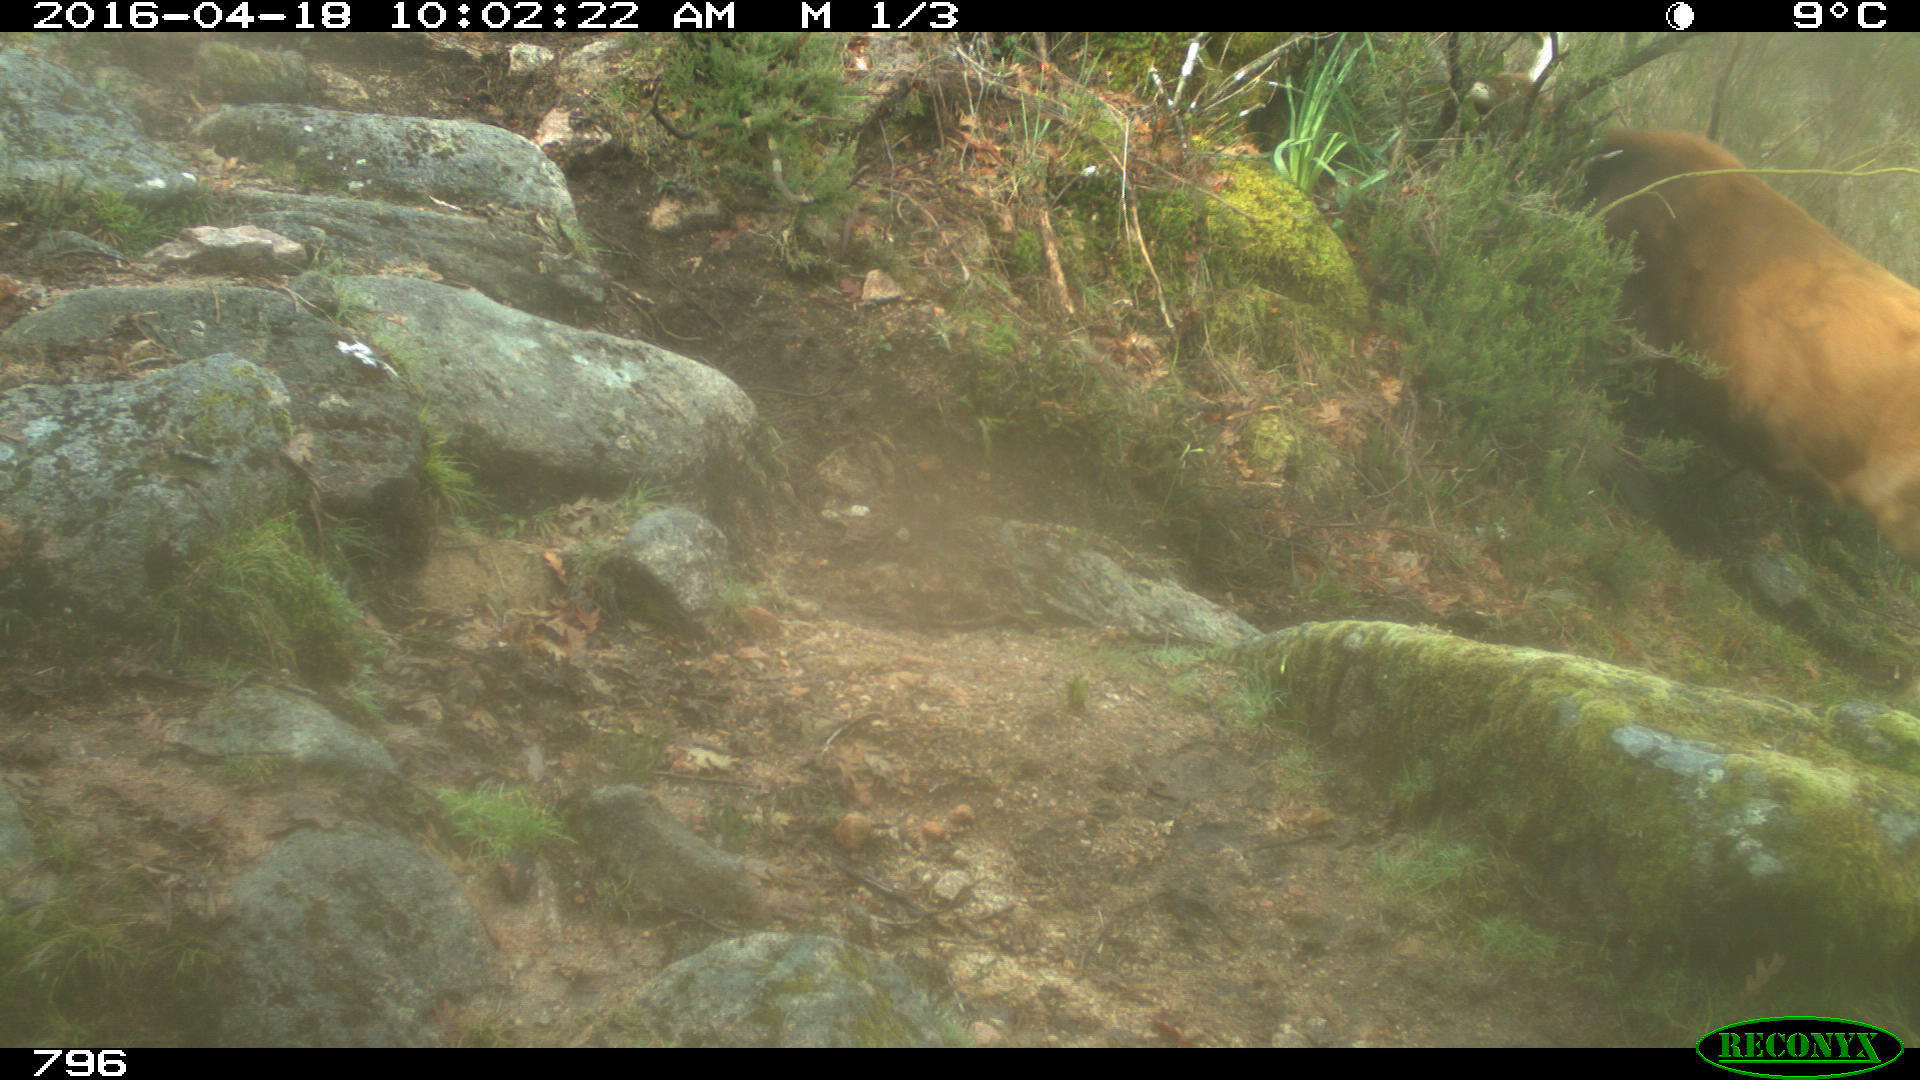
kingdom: Animalia
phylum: Chordata
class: Mammalia
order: Artiodactyla
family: Bovidae
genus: Bos
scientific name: Bos taurus
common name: Domesticated cattle
